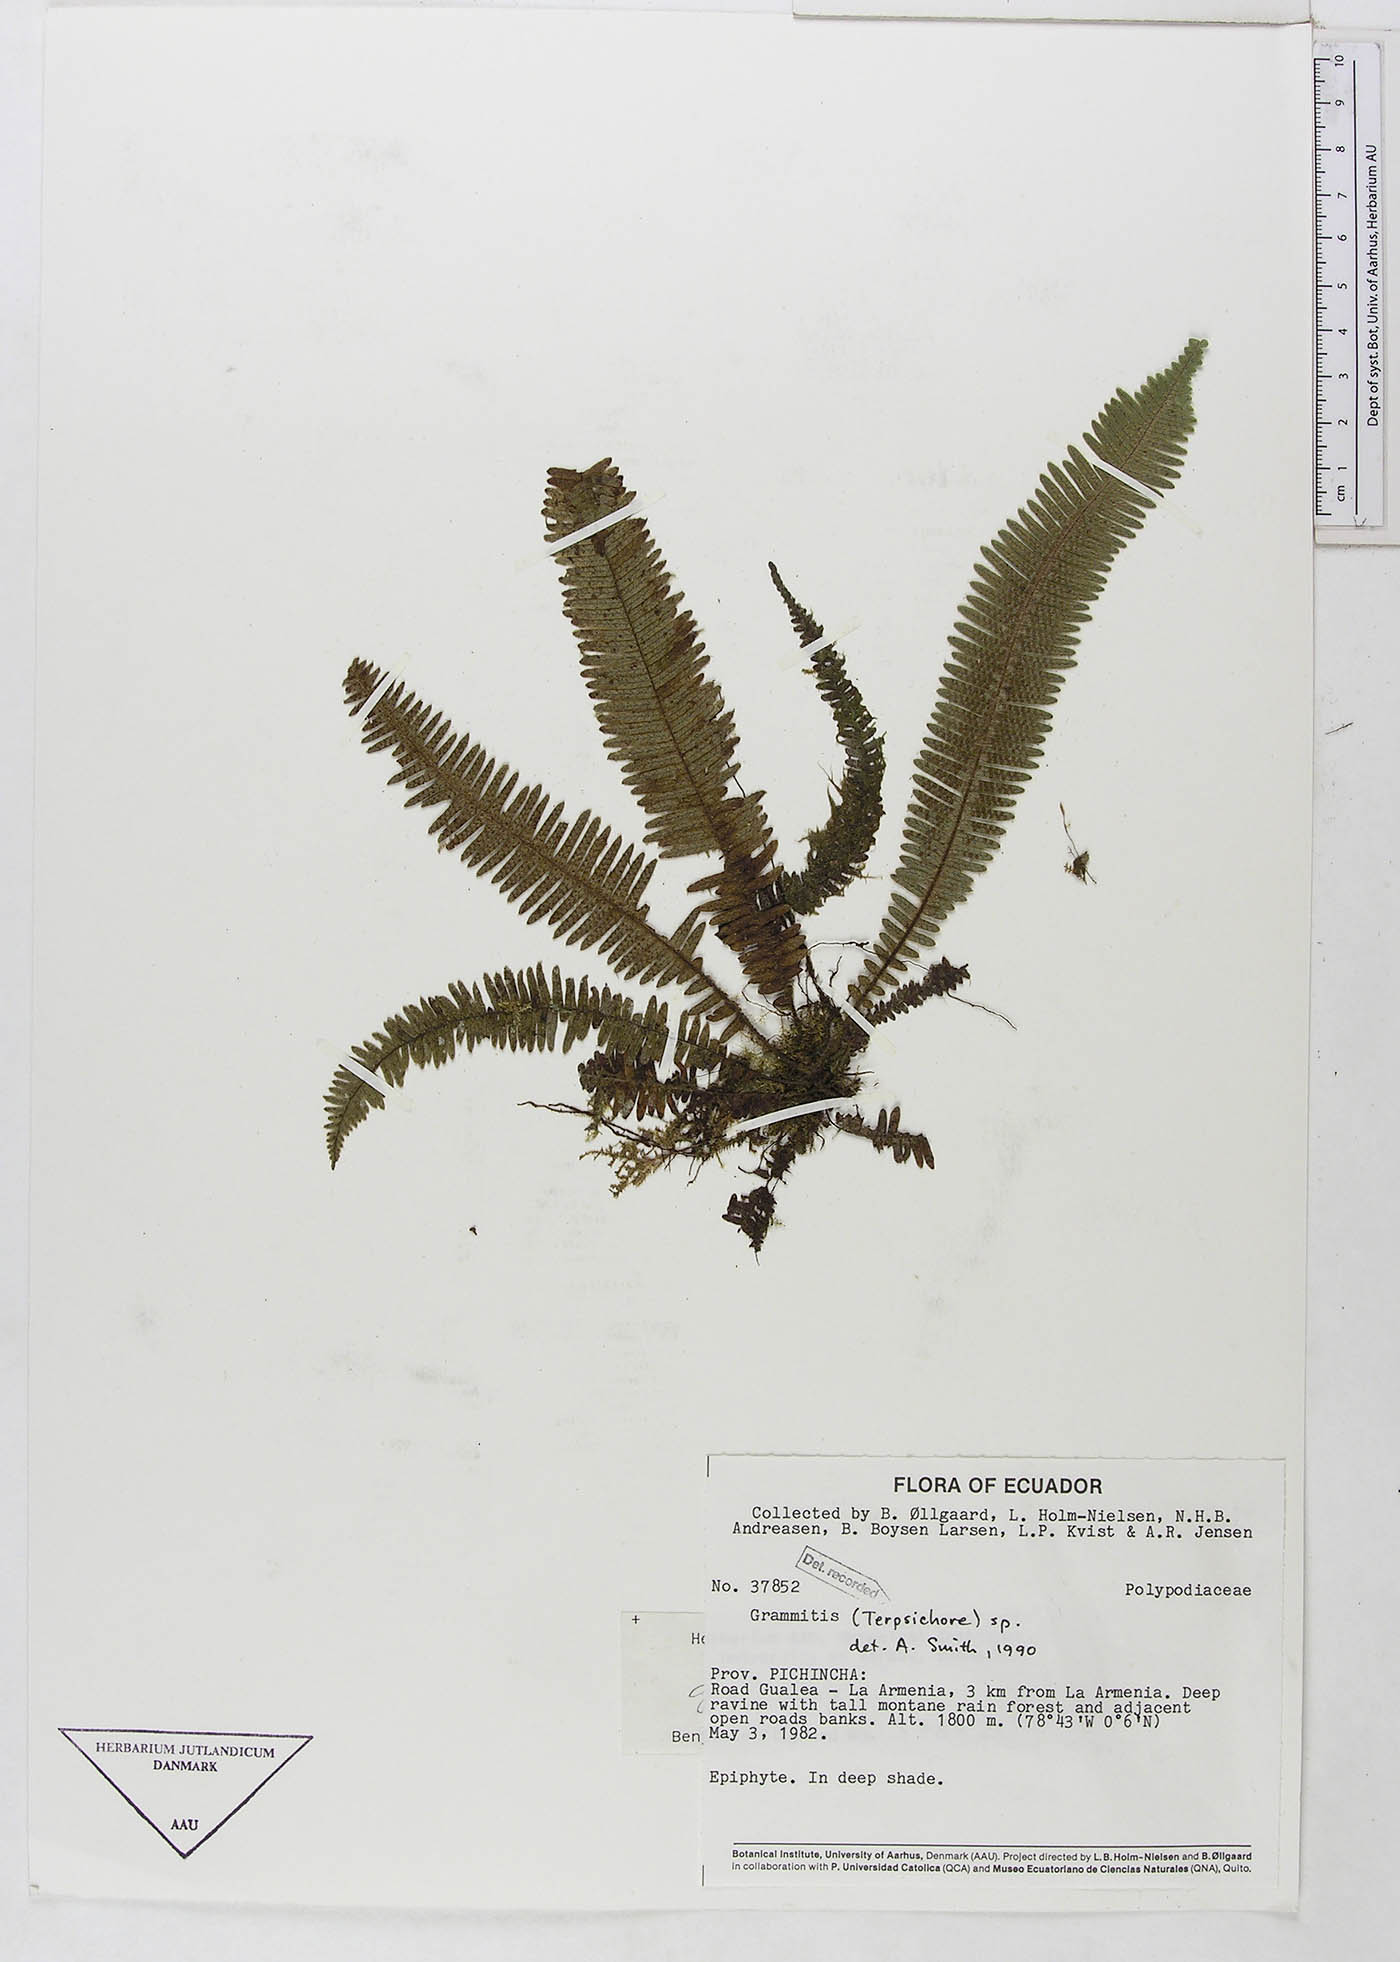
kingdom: Plantae
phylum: Tracheophyta
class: Polypodiopsida
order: Polypodiales
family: Polypodiaceae
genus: Grammitis
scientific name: Grammitis
